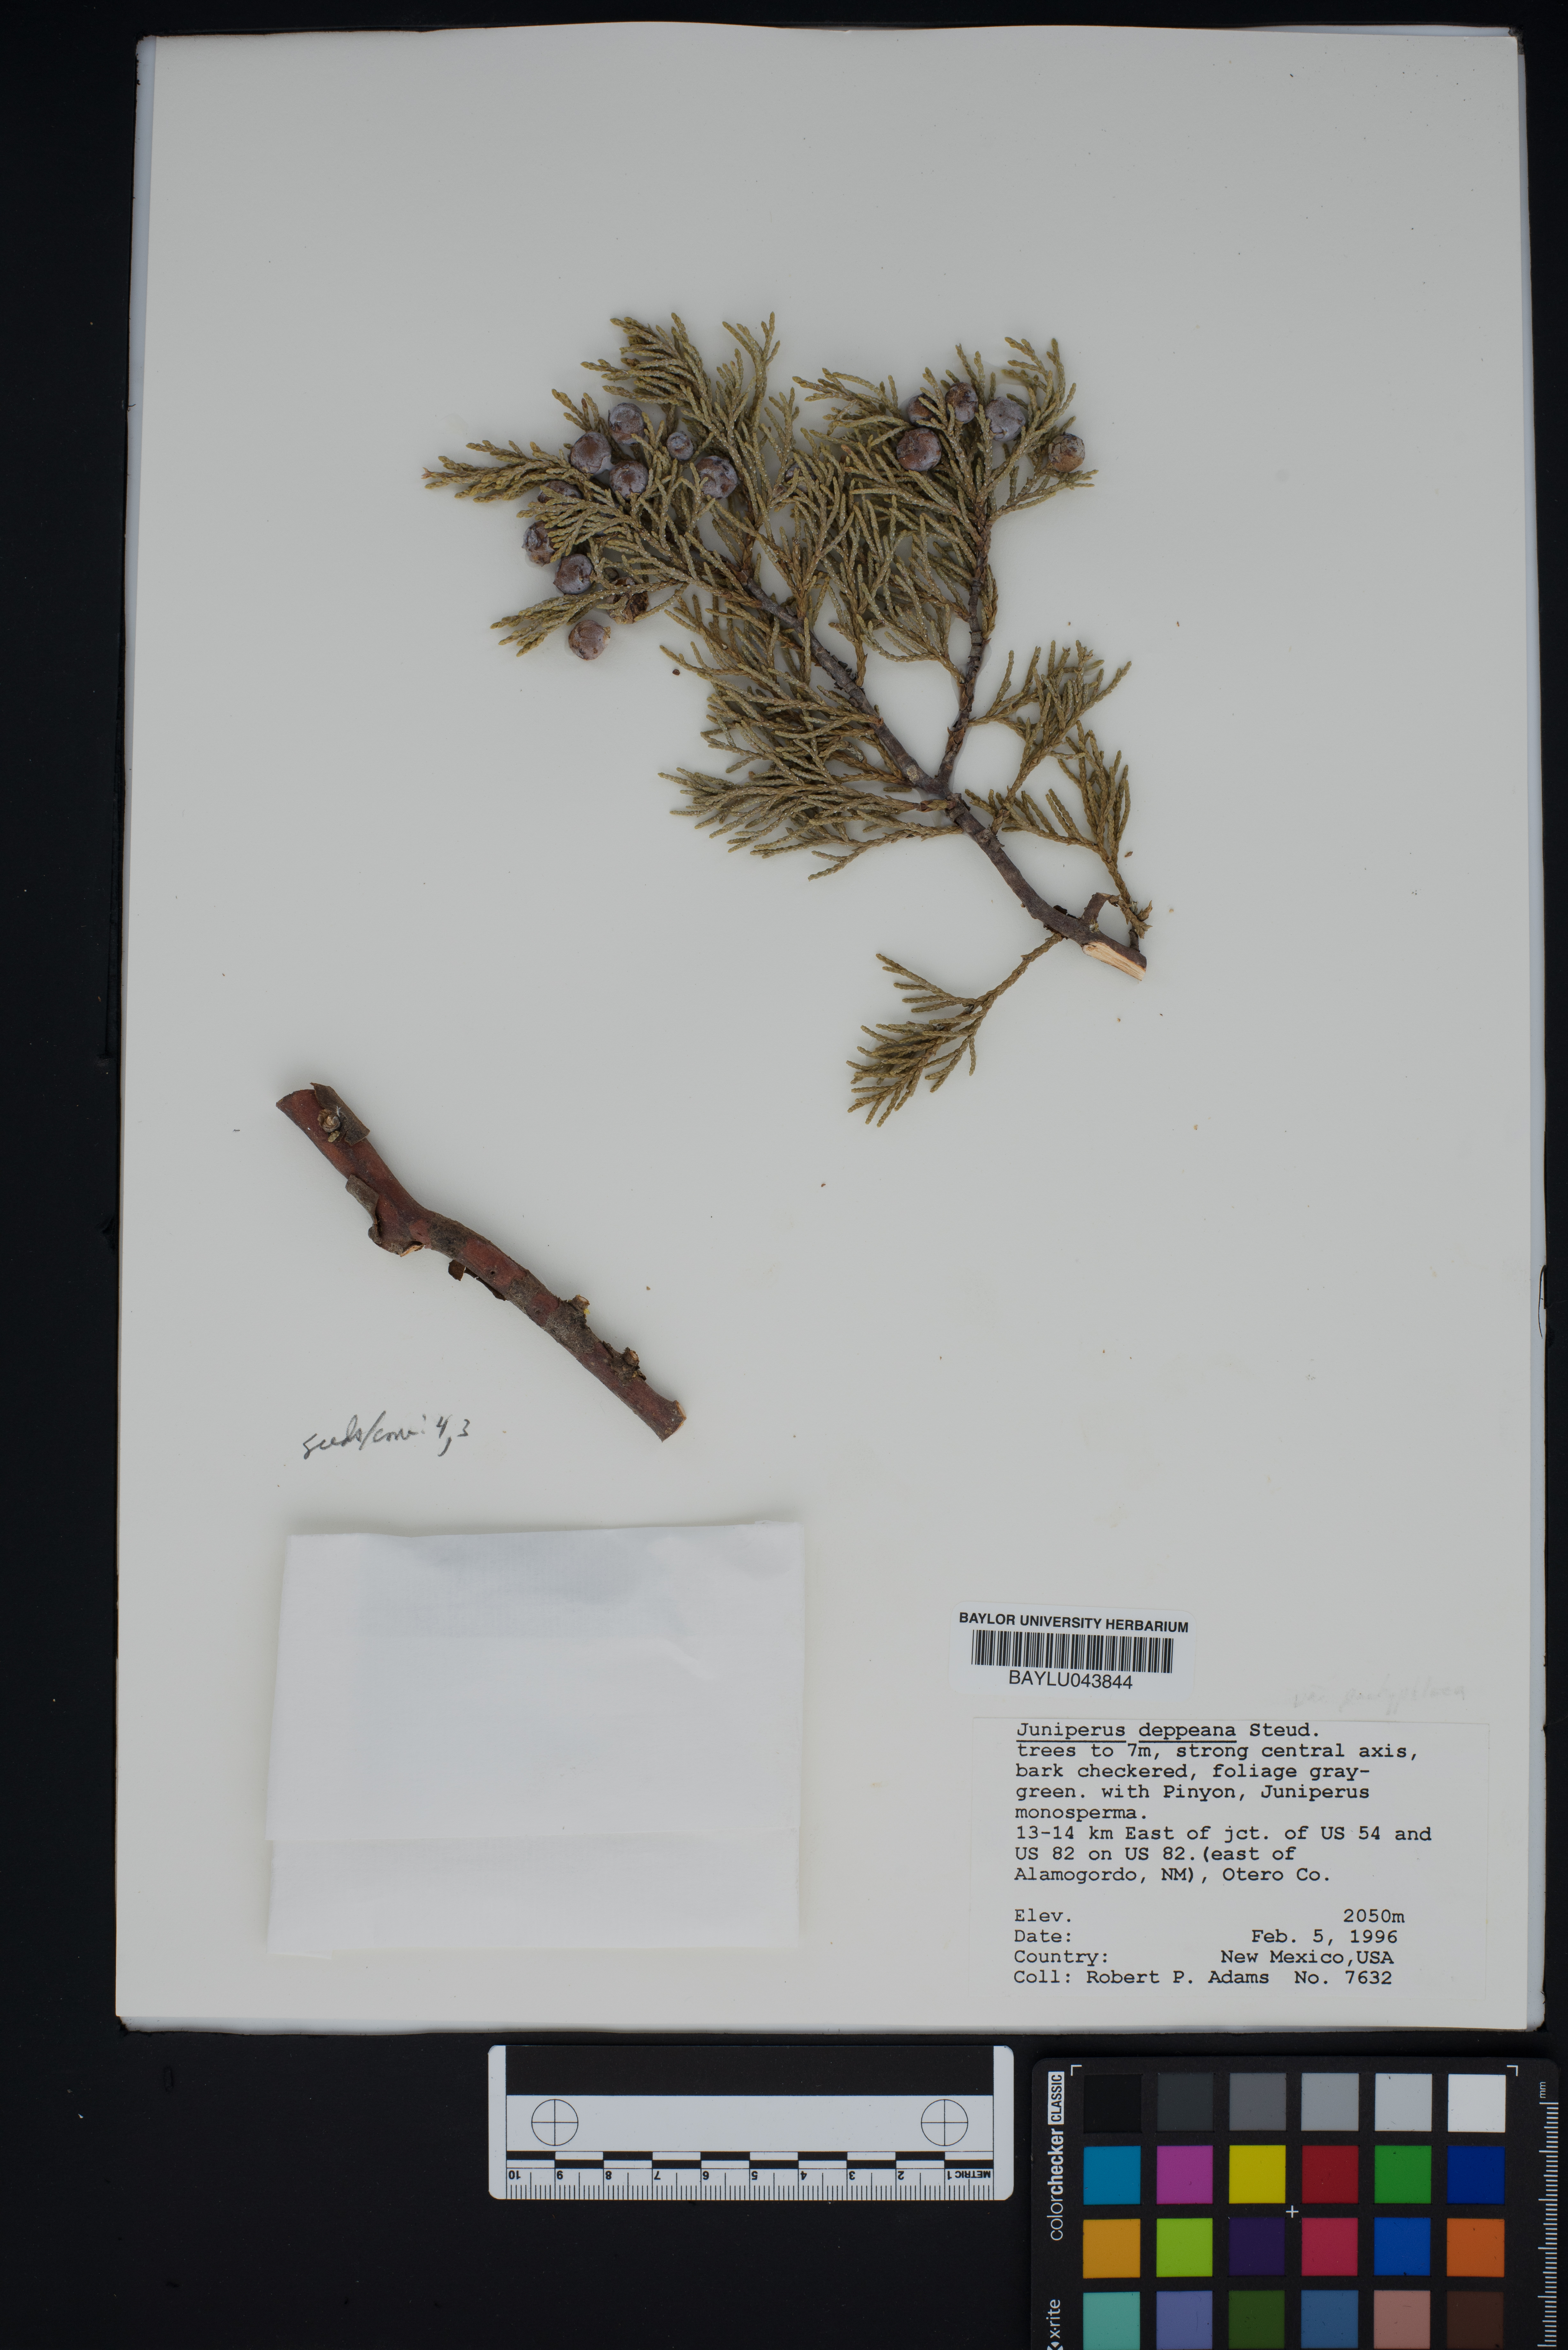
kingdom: Plantae
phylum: Tracheophyta
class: Pinopsida
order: Pinales
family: Cupressaceae
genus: Juniperus
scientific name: Juniperus deppeana
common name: Alligator juniper
